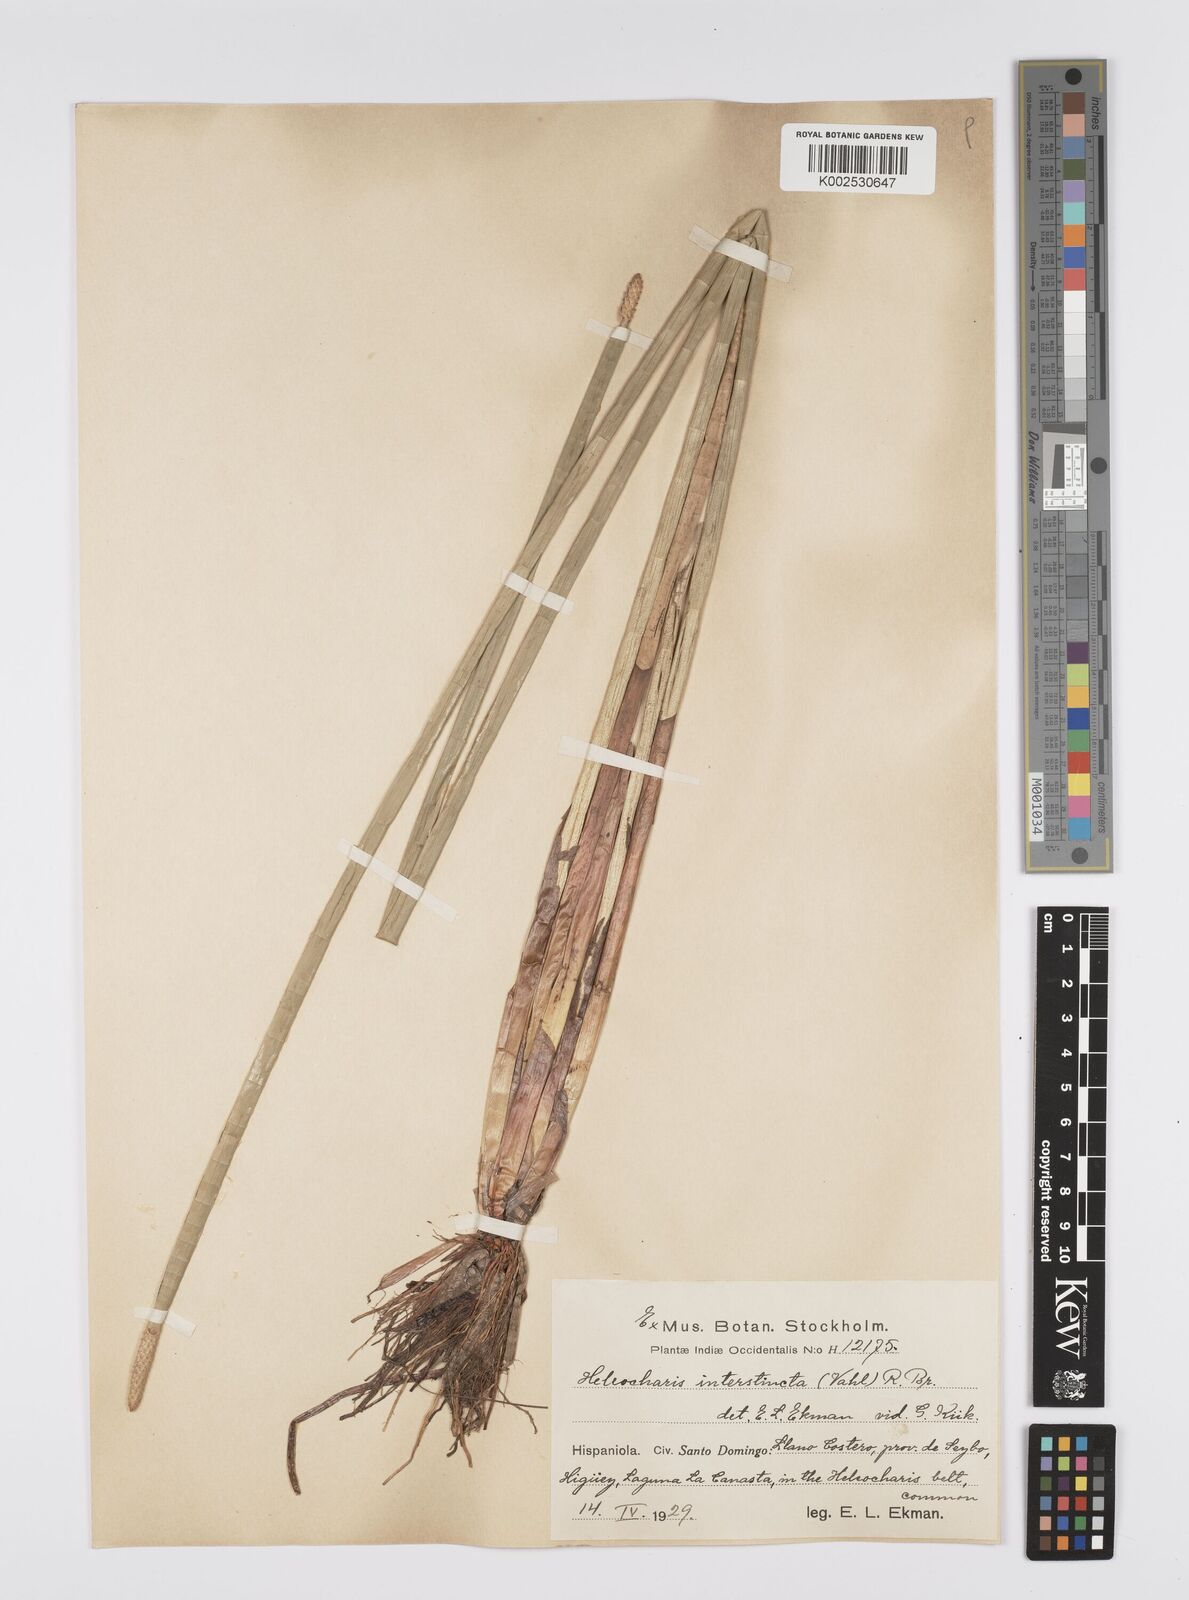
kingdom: Plantae
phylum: Tracheophyta
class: Liliopsida
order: Poales
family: Cyperaceae
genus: Eleocharis
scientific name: Eleocharis interstincta
